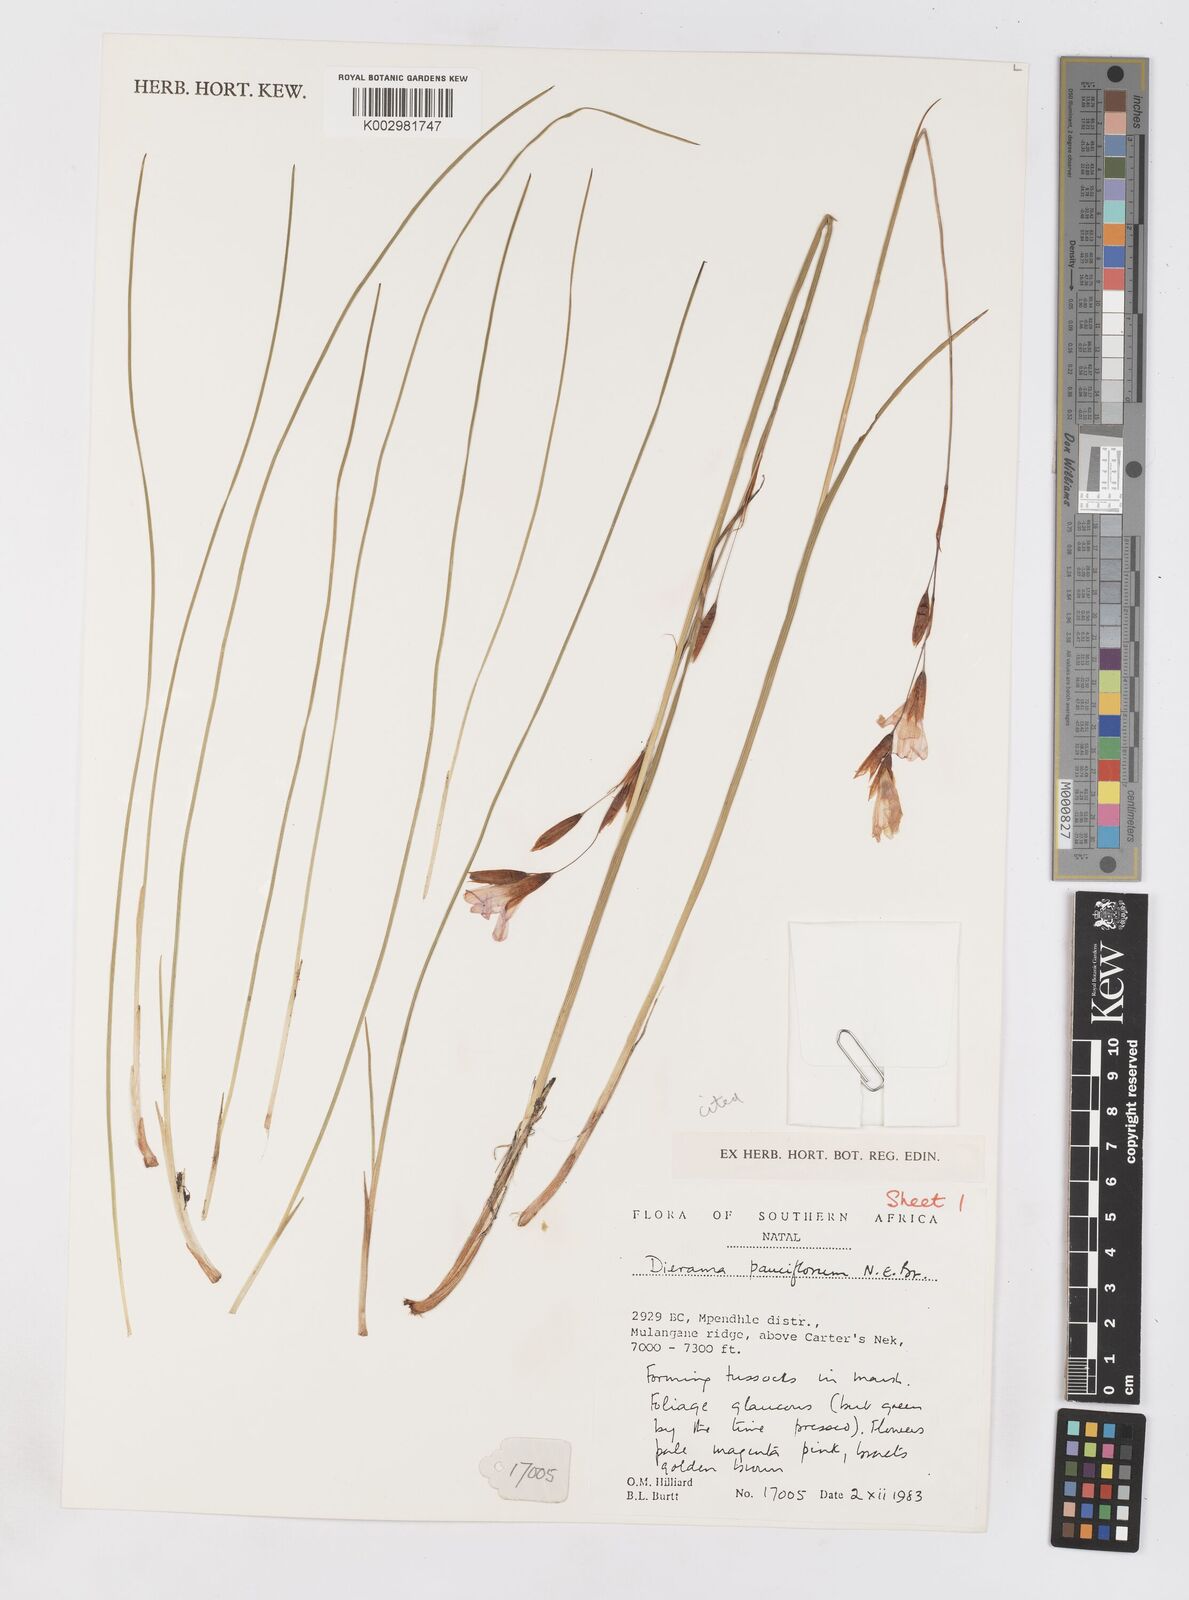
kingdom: Plantae
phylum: Tracheophyta
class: Liliopsida
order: Asparagales
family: Iridaceae
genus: Dierama
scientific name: Dierama pauciflorum
